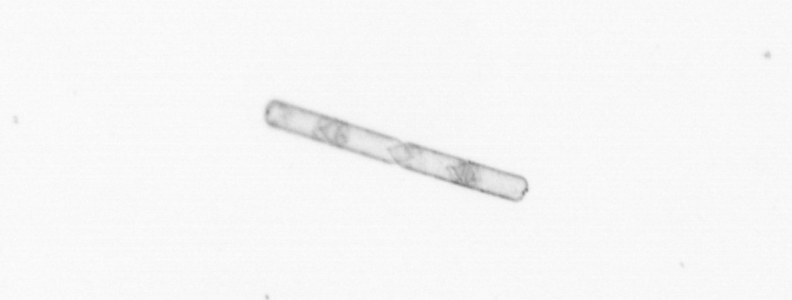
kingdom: Chromista
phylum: Ochrophyta
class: Bacillariophyceae
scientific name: Bacillariophyceae
